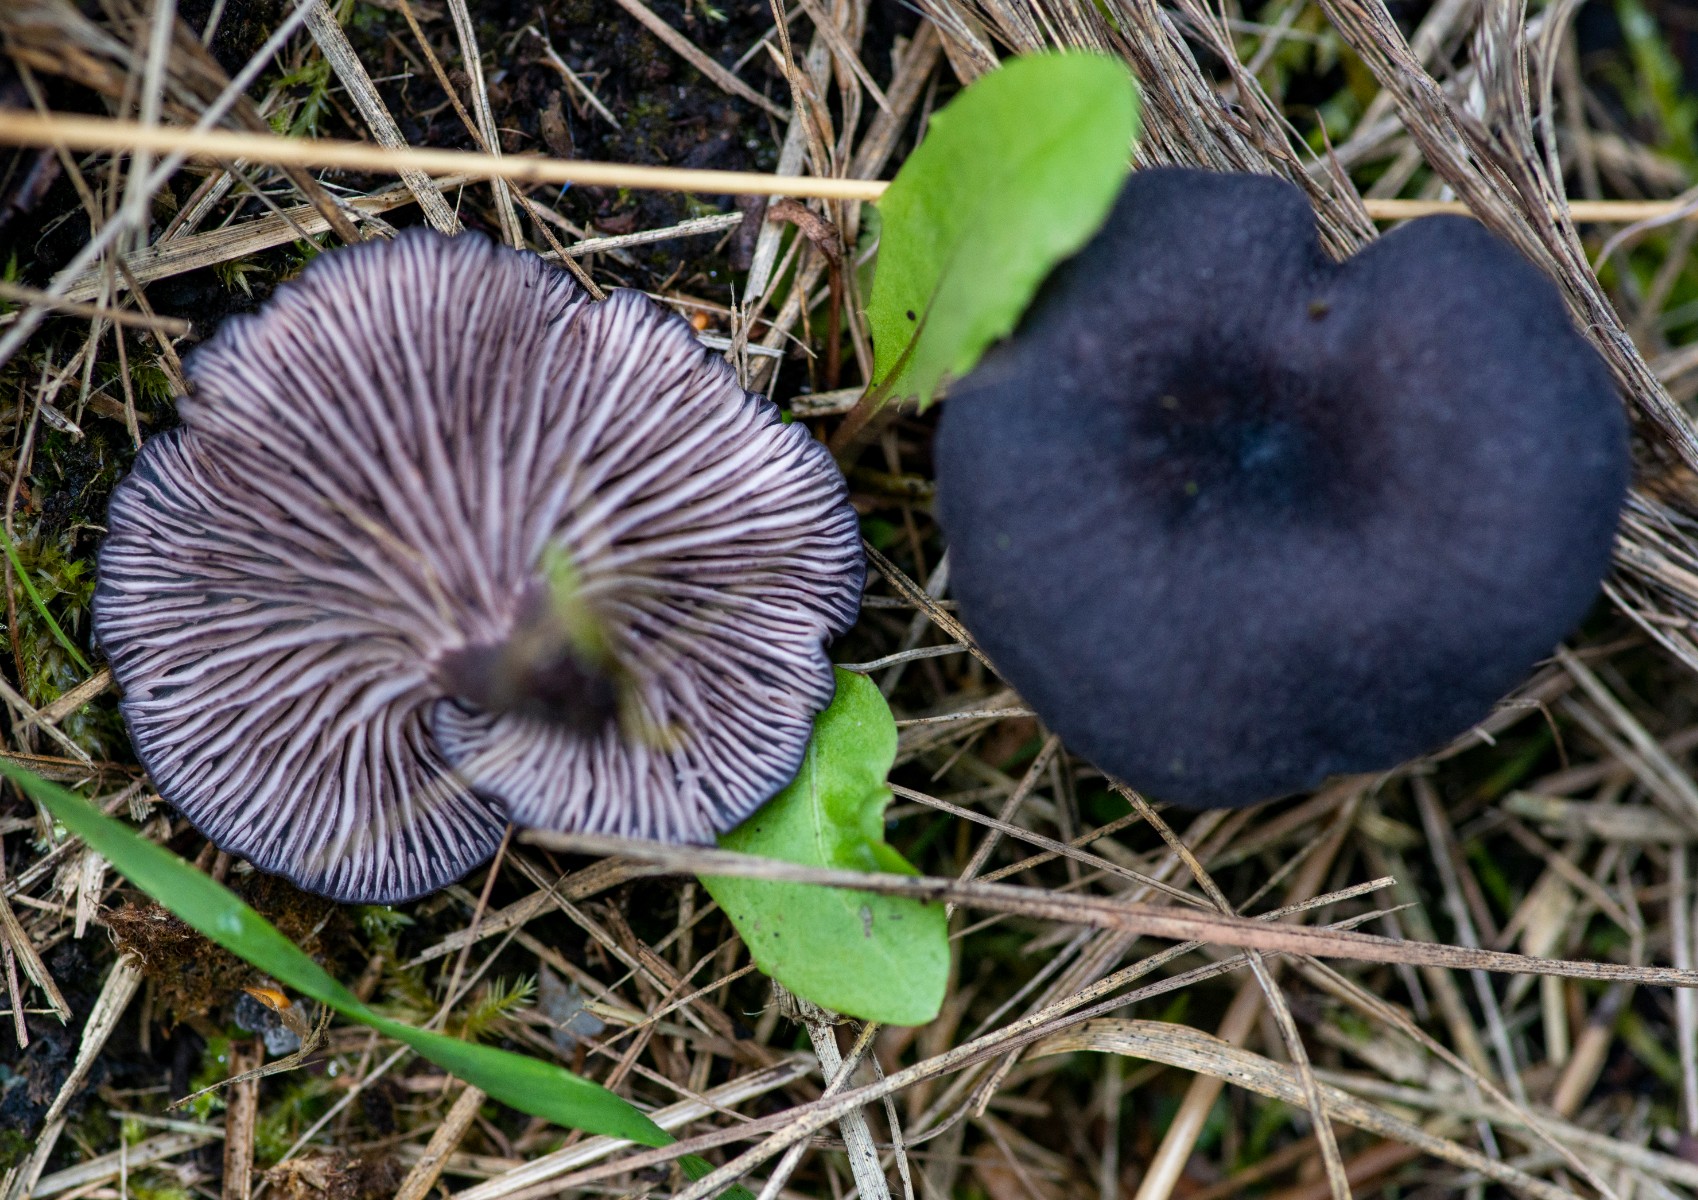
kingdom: Fungi
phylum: Basidiomycota
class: Agaricomycetes
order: Agaricales
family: Entolomataceae
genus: Entoloma
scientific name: Entoloma
